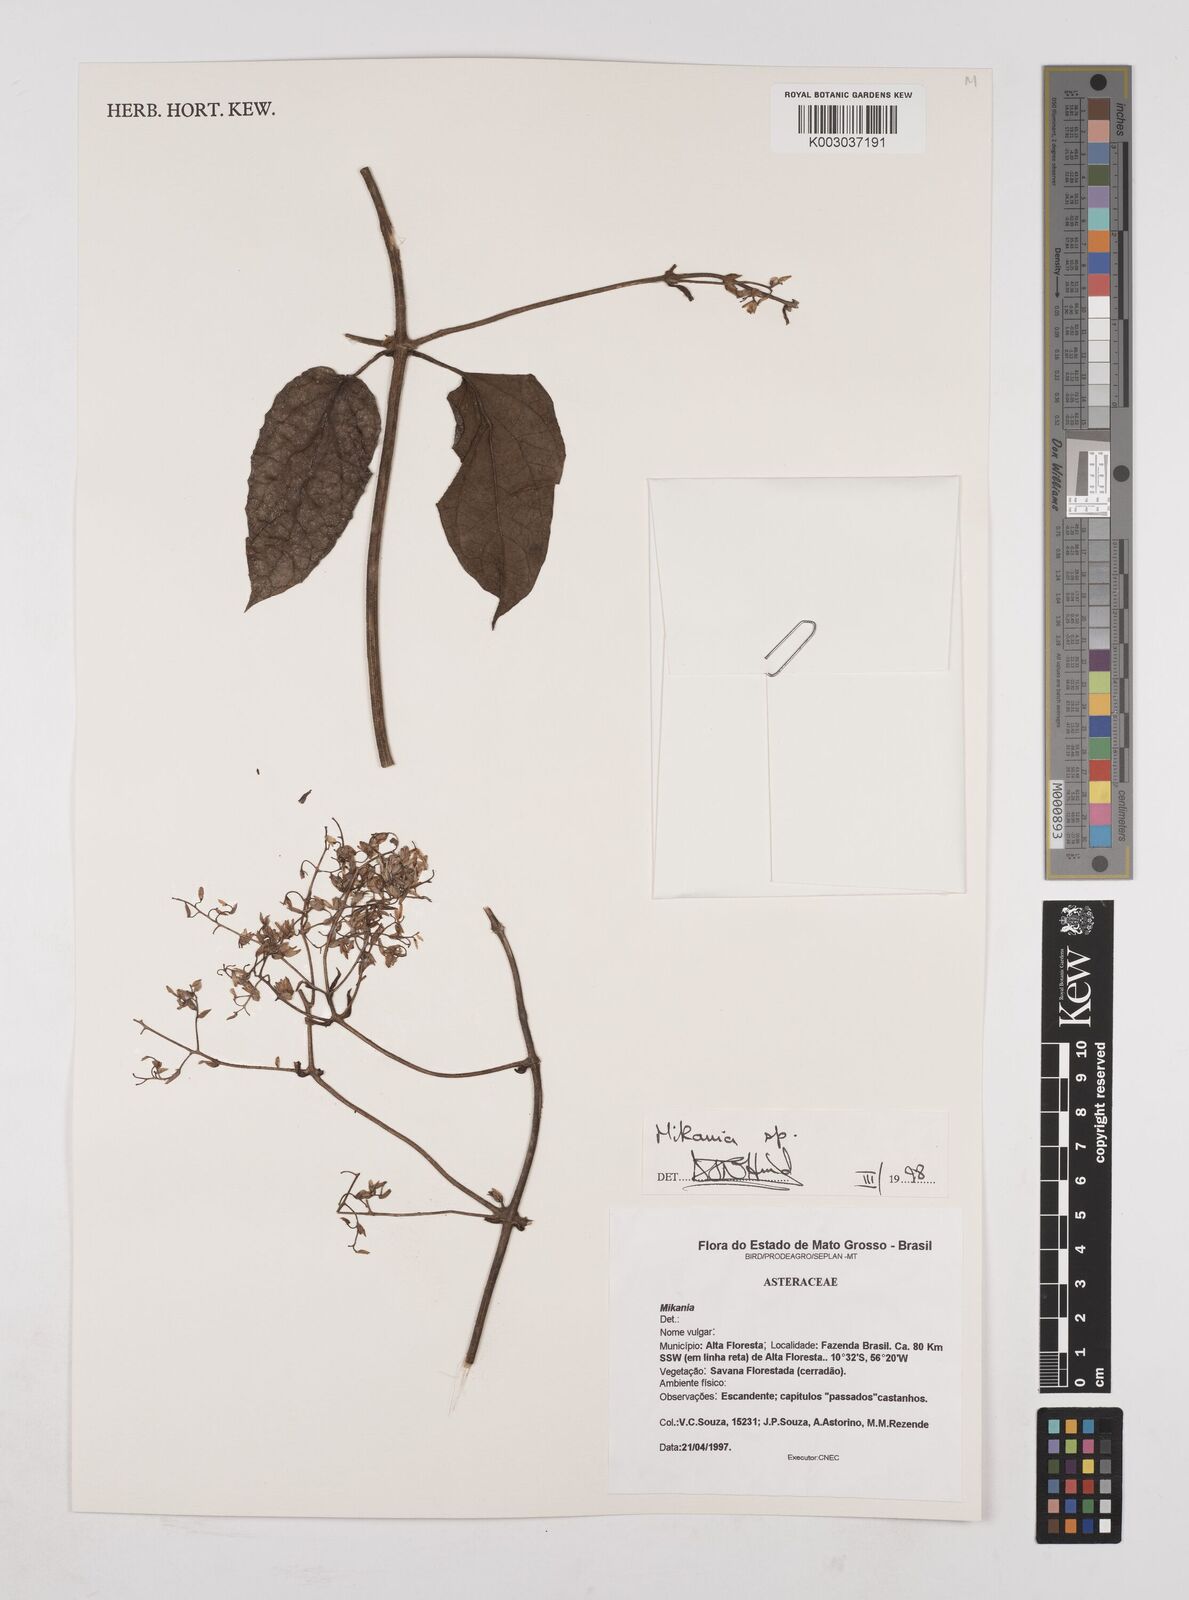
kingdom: Plantae
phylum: Tracheophyta
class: Magnoliopsida
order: Asterales
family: Asteraceae
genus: Mikania
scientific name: Mikania
